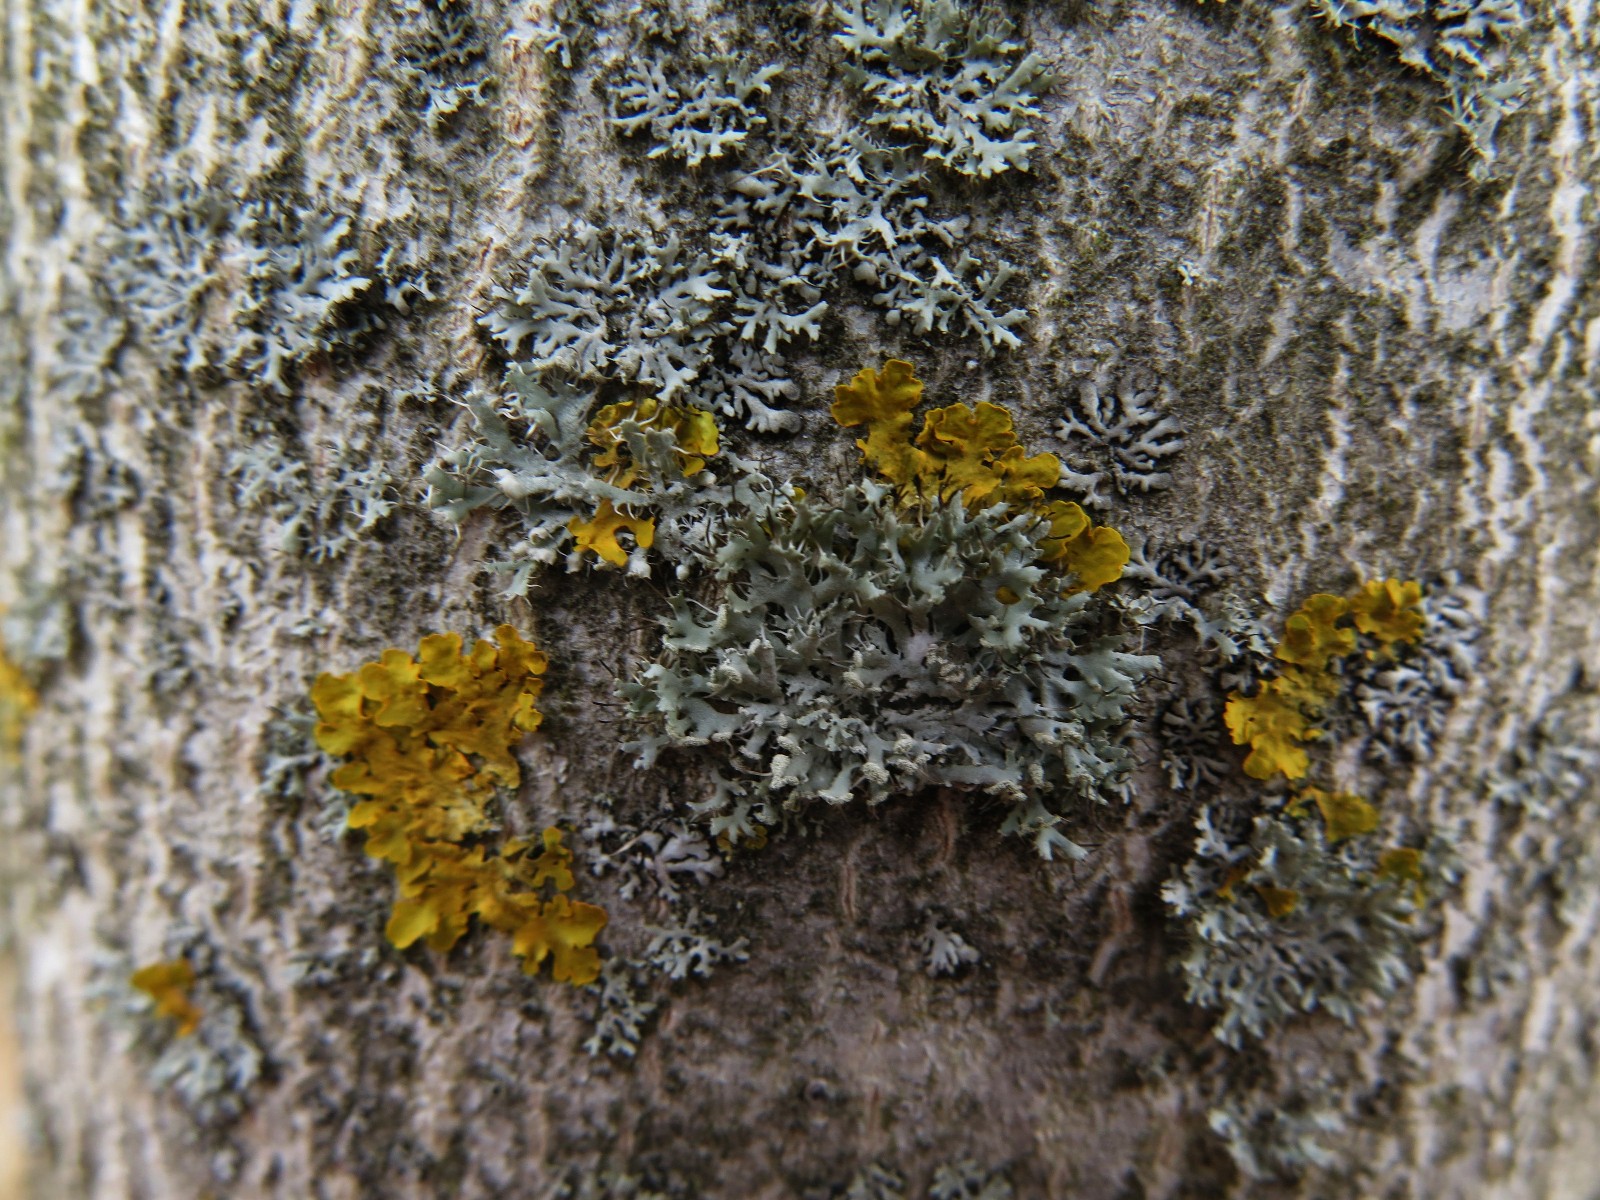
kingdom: Fungi
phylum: Ascomycota
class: Lecanoromycetes
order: Caliciales
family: Physciaceae
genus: Physcia
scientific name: Physcia adscendens
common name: hætte-rosetlav
